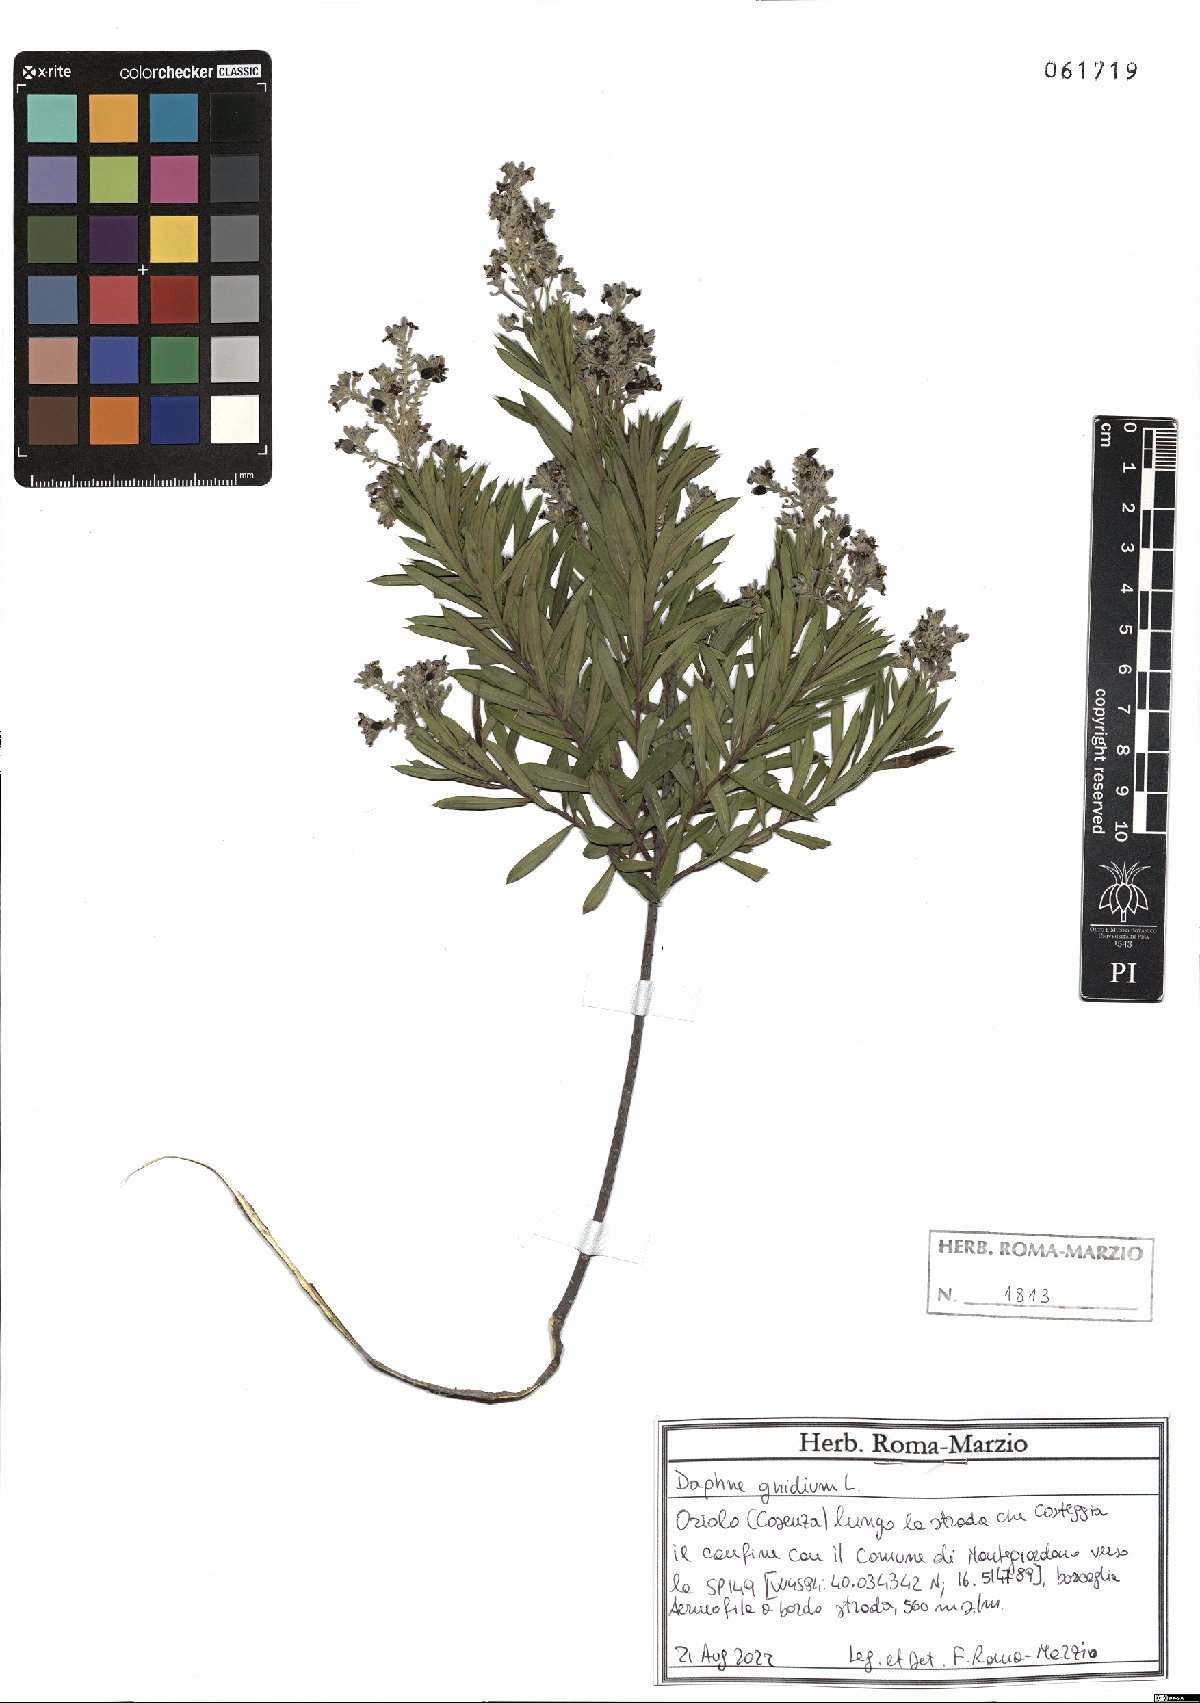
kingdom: Plantae
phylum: Tracheophyta
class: Magnoliopsida
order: Malvales
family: Thymelaeaceae
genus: Daphne
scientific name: Daphne gnidium
